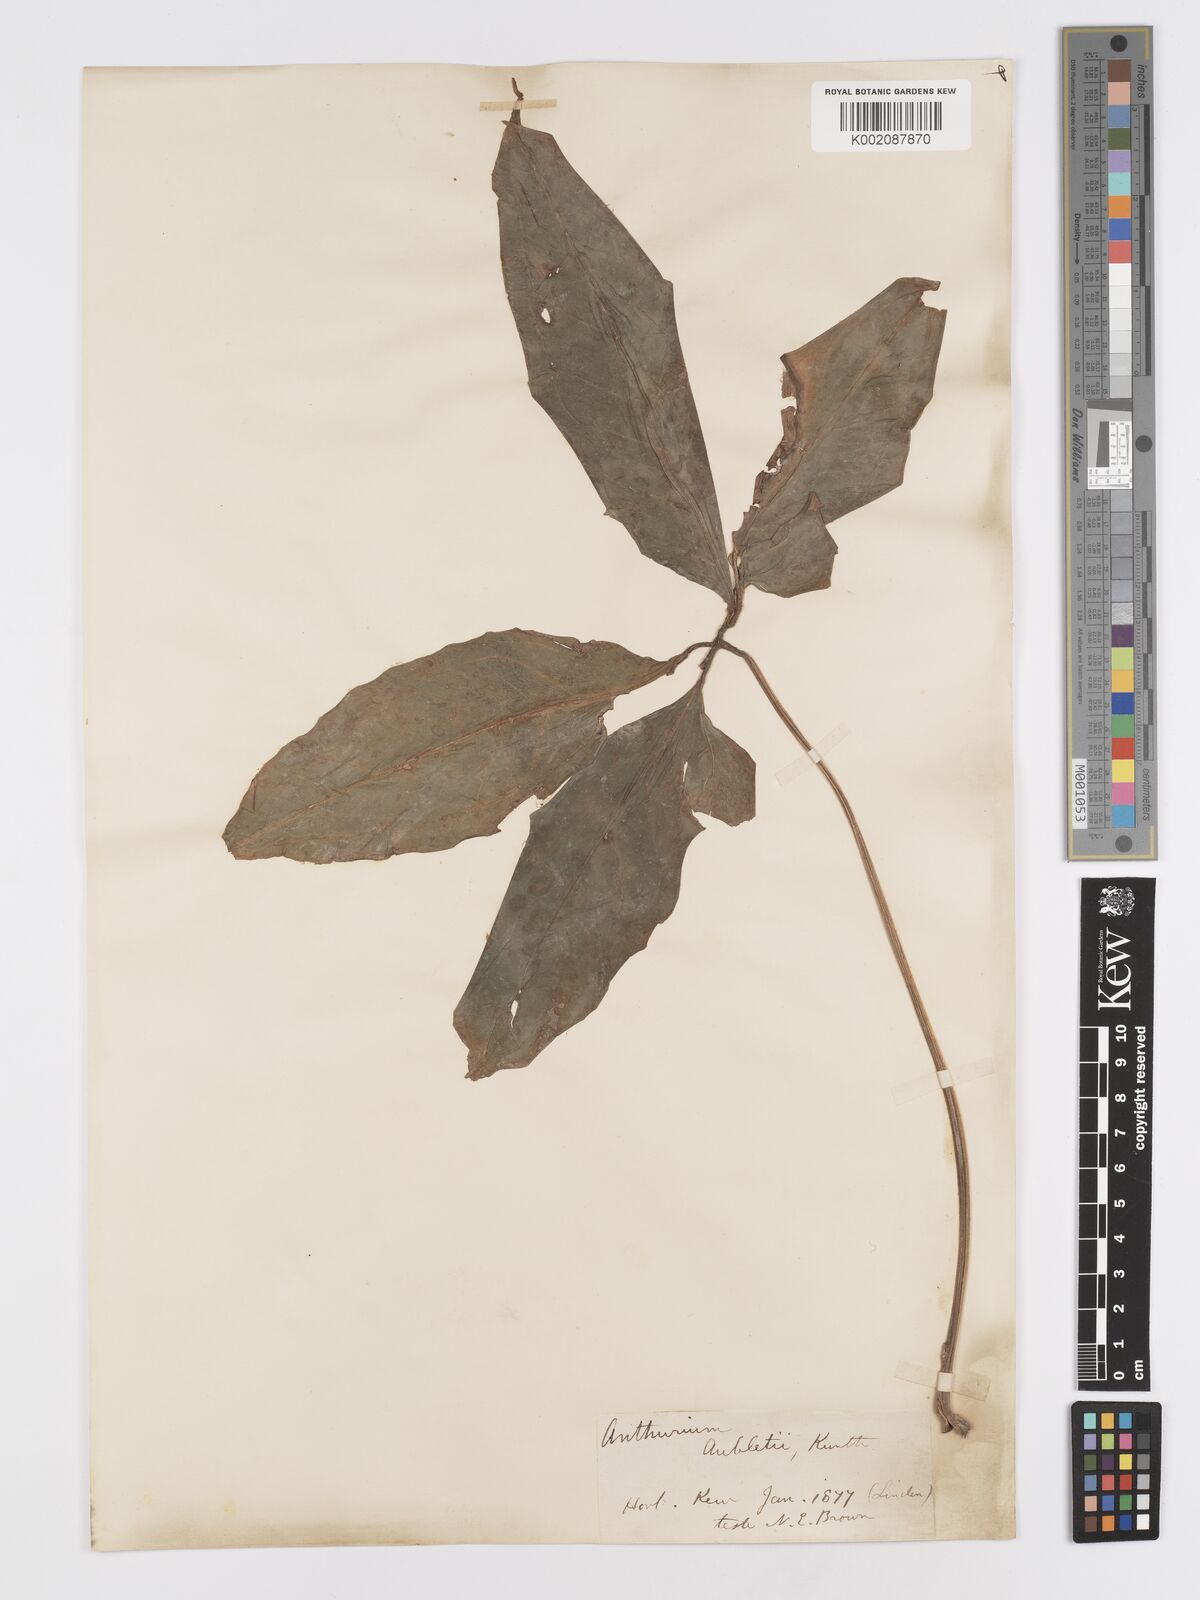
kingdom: Plantae
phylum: Tracheophyta
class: Liliopsida
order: Alismatales
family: Araceae
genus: Anthurium
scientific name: Anthurium pentaphyllum
